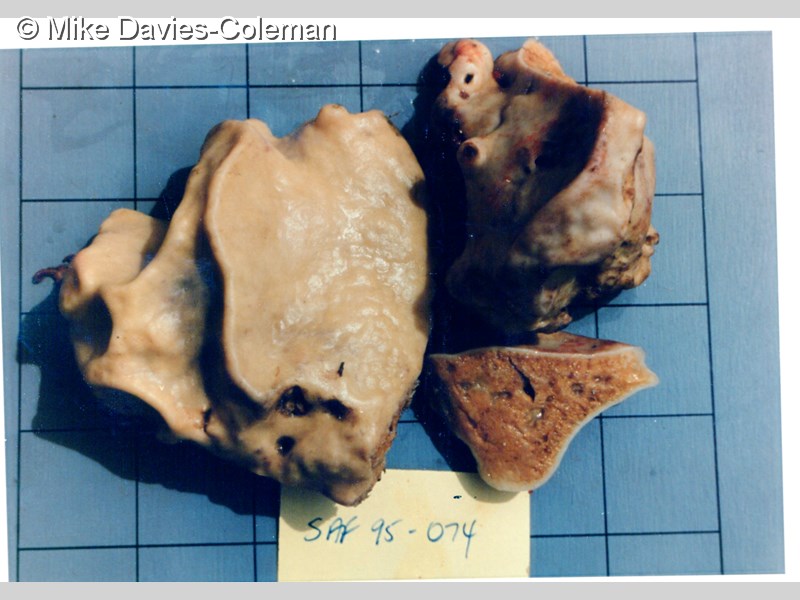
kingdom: Animalia
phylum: Porifera
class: Demospongiae
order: Clionaida
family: Spirastrellidae
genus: Spirastrella
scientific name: Spirastrella
